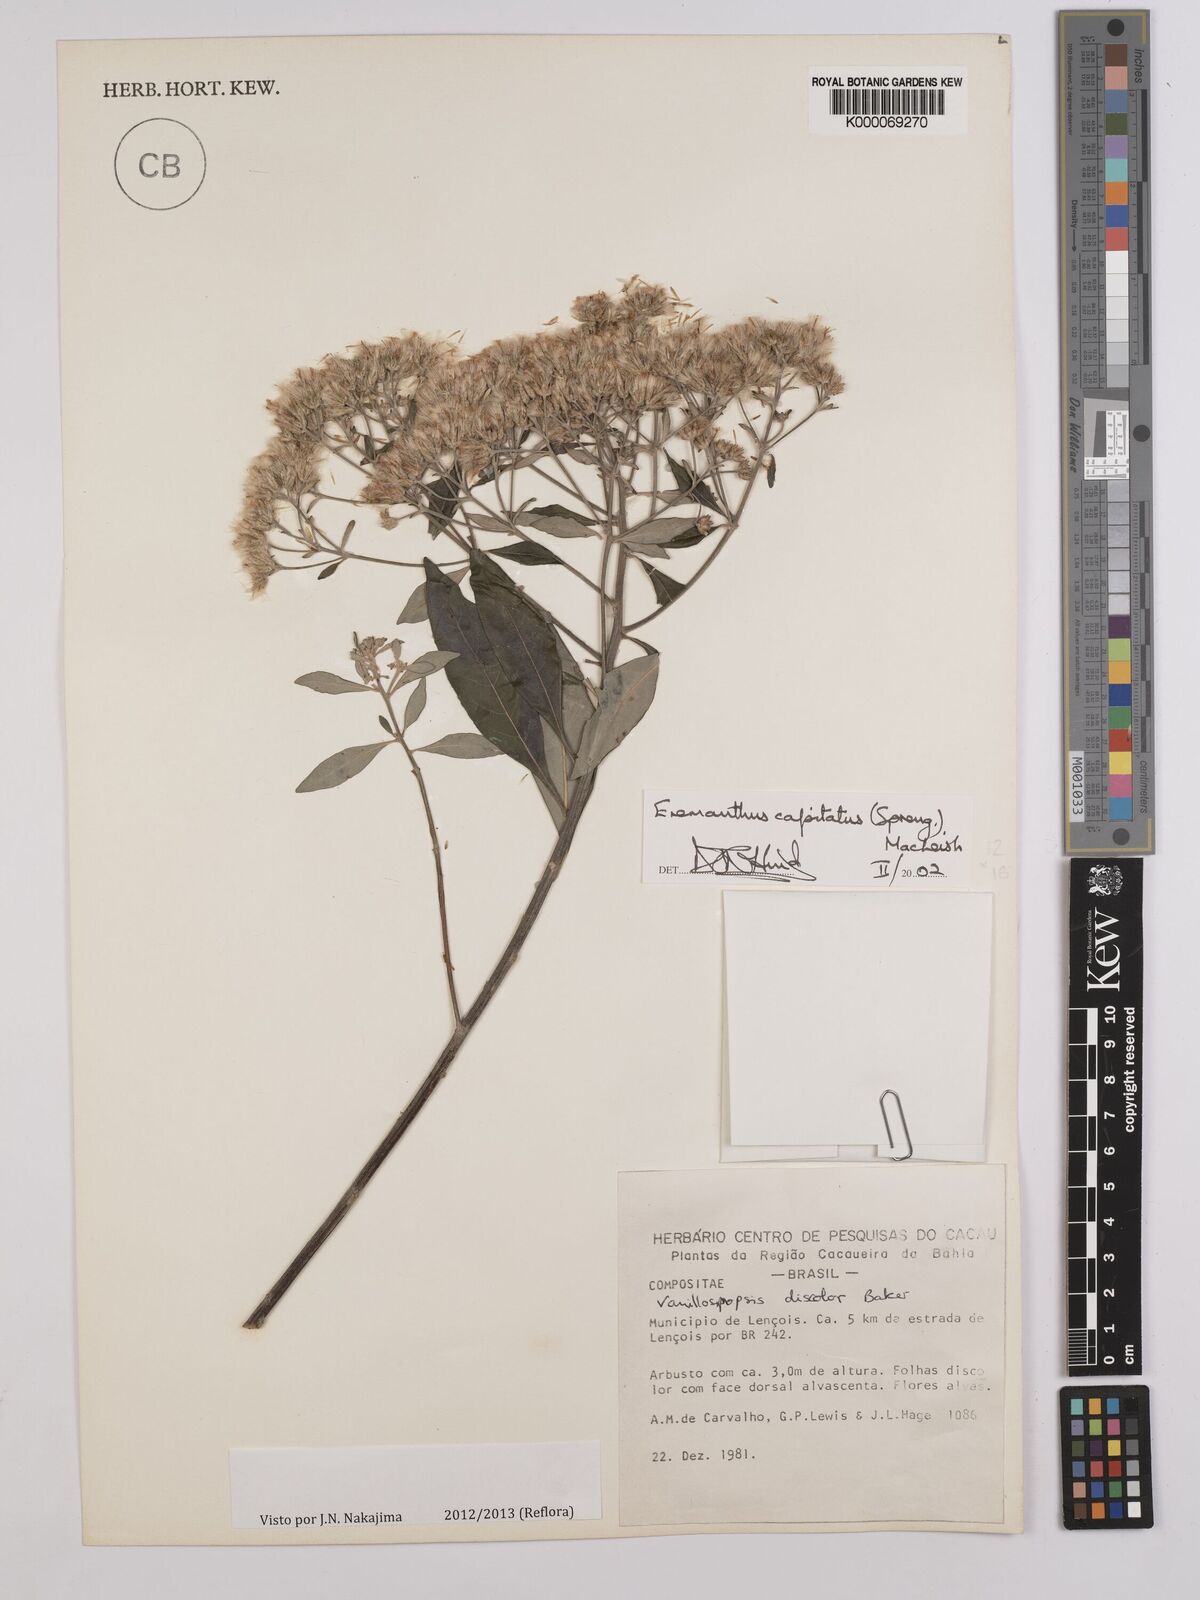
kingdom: Plantae
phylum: Tracheophyta
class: Magnoliopsida
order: Asterales
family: Asteraceae
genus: Eremanthus
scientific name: Eremanthus capitatus
